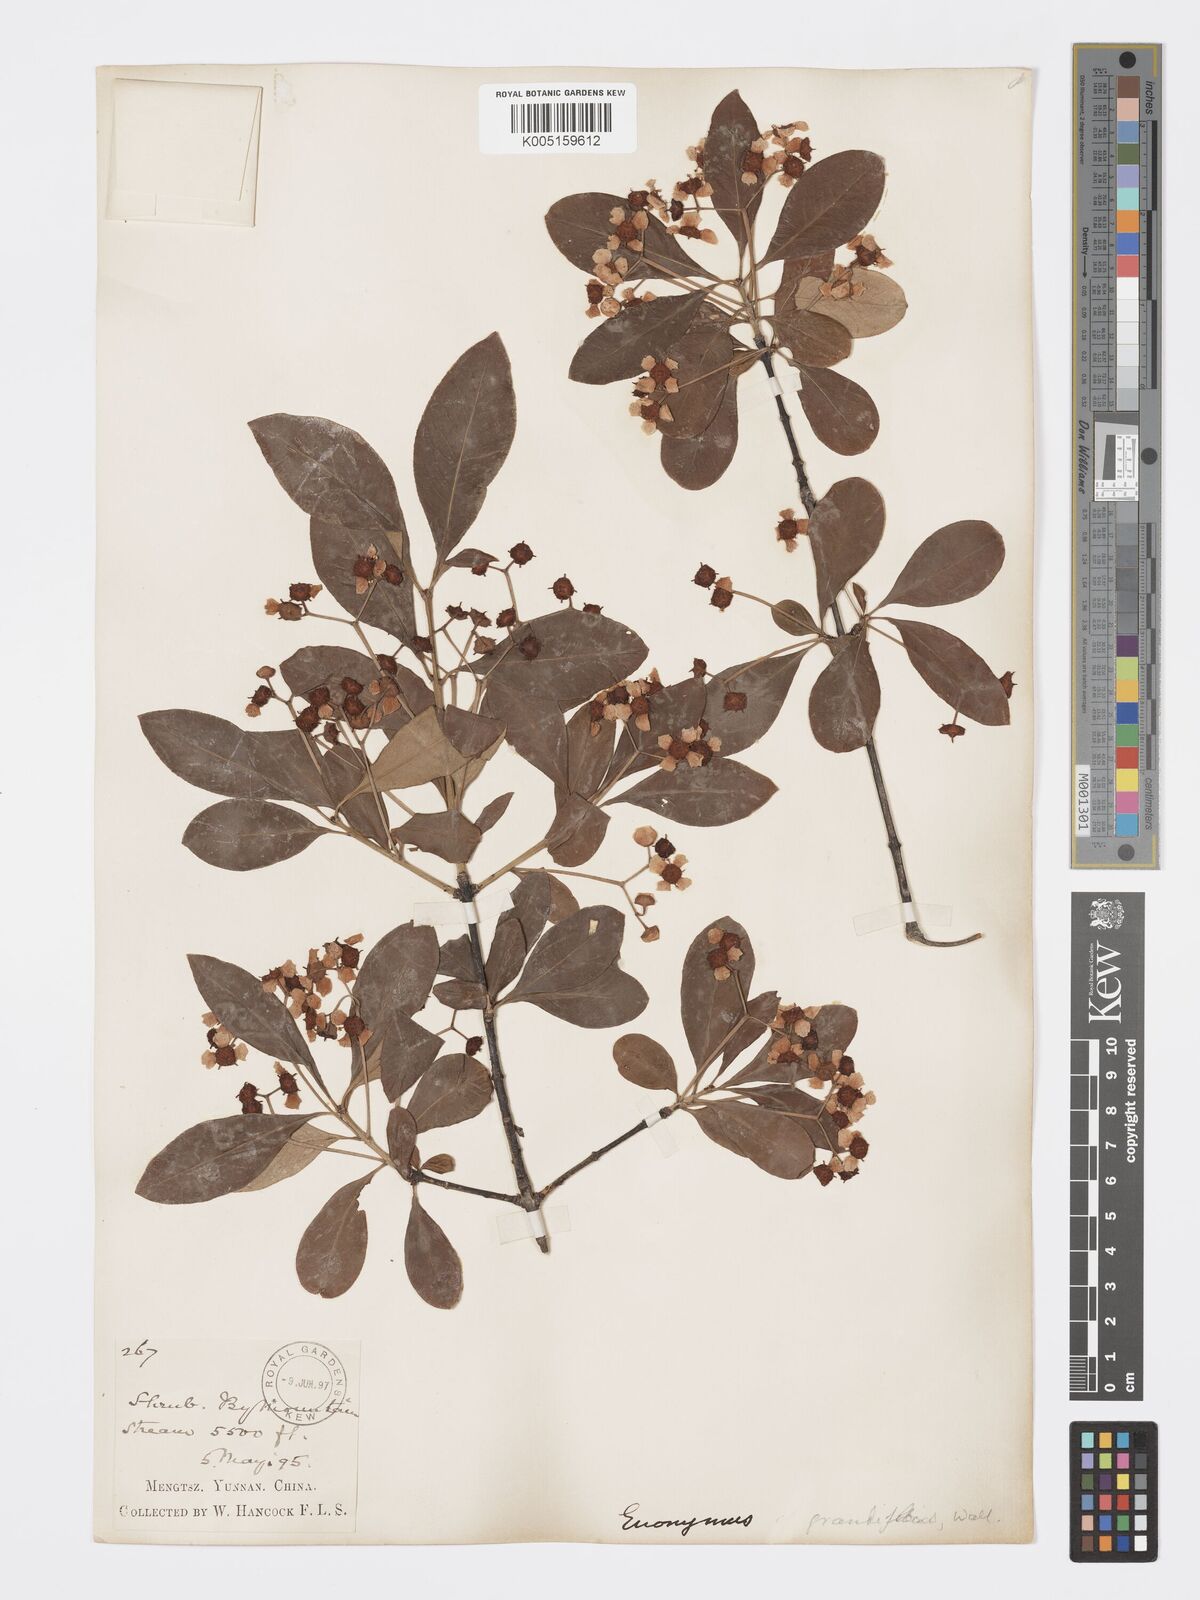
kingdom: Plantae
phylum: Tracheophyta
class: Magnoliopsida
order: Celastrales
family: Celastraceae
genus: Euonymus
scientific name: Euonymus grandiflorus
